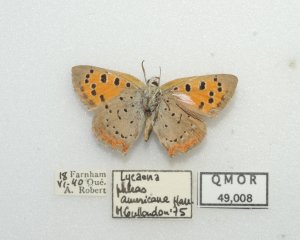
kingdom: Animalia
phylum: Arthropoda
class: Insecta
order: Lepidoptera
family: Lycaenidae
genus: Lycaena
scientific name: Lycaena phlaeas
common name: American Copper
